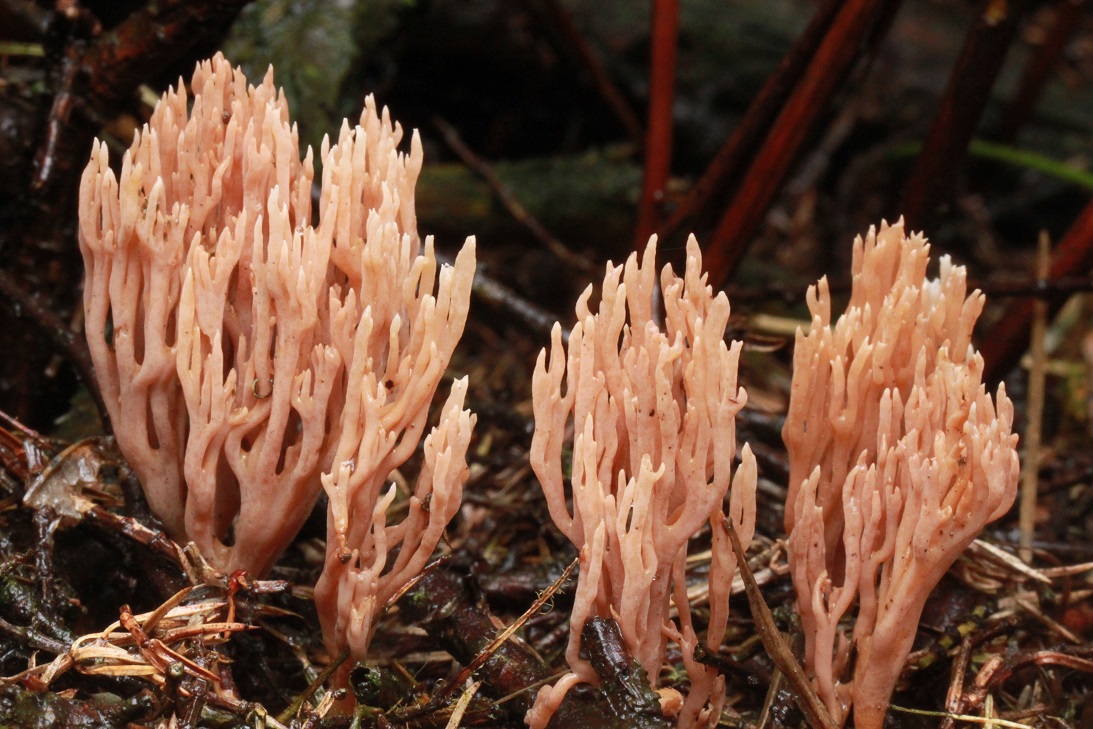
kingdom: Fungi
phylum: Basidiomycota
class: Agaricomycetes
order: Gomphales
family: Gomphaceae
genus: Ramaria
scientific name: Ramaria suecica
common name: svensk koralsvamp
